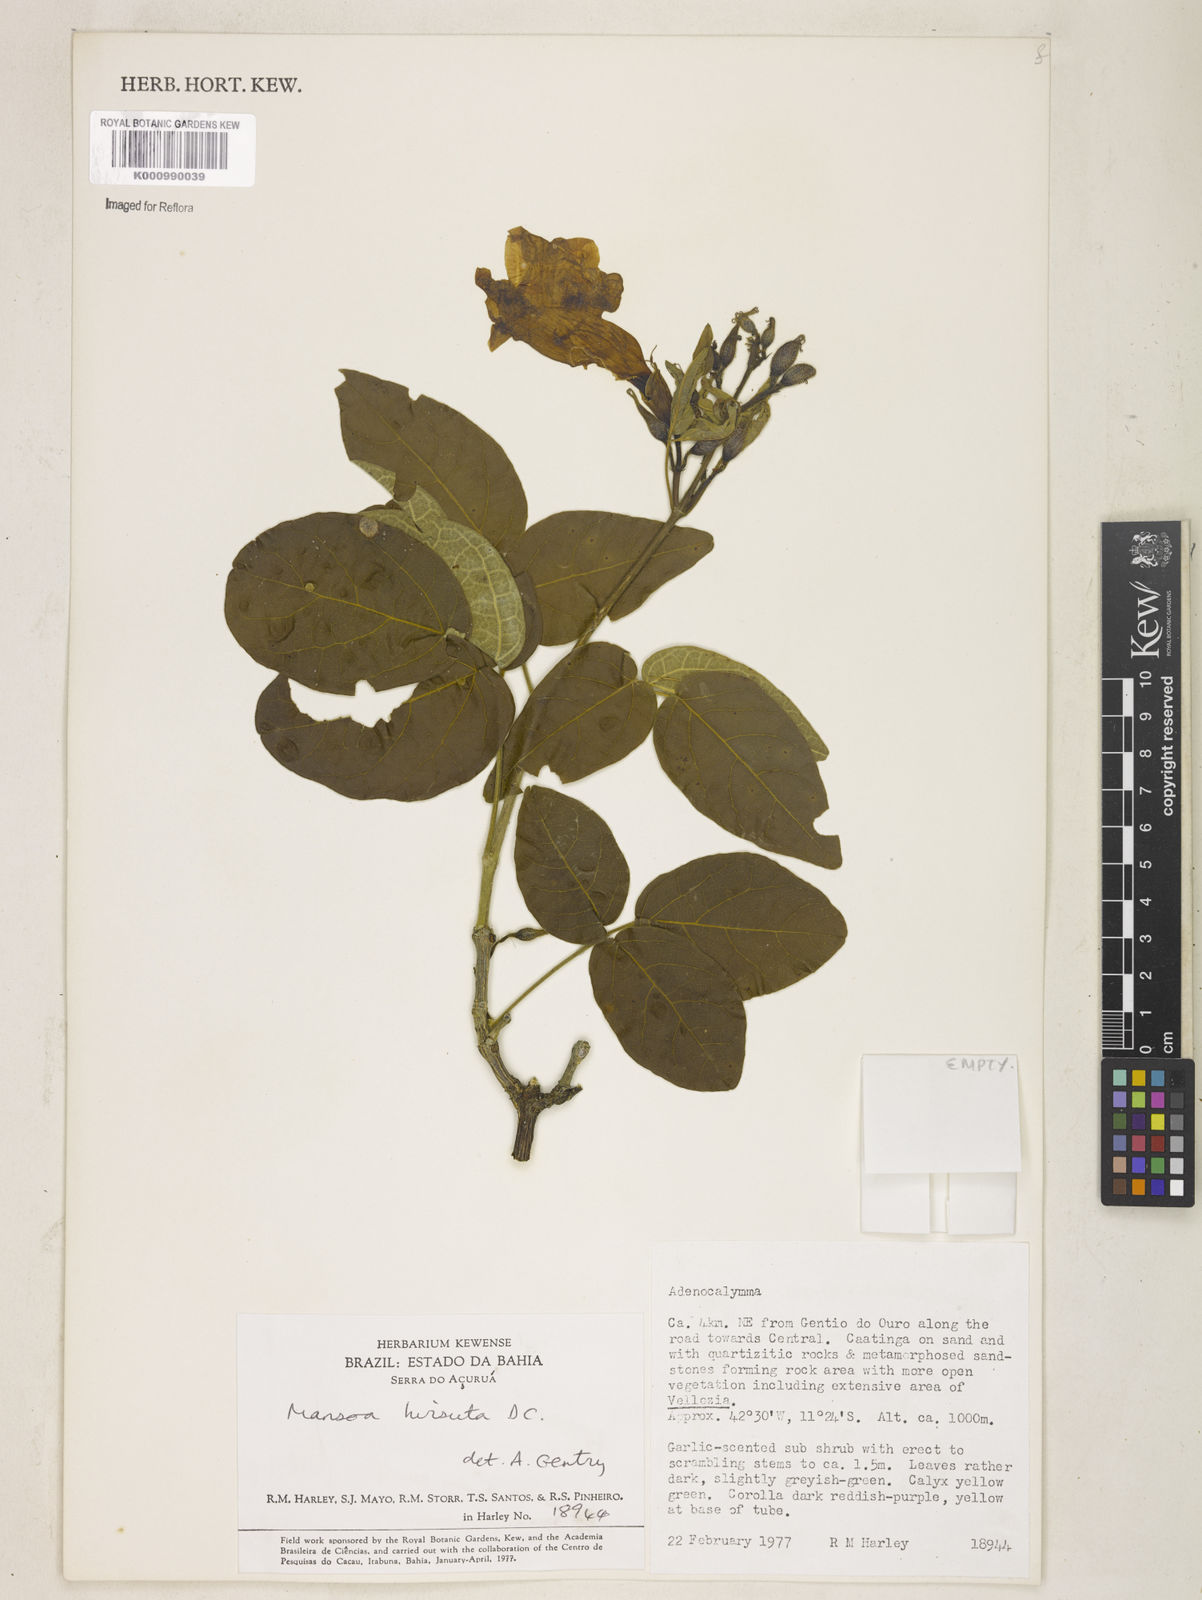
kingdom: Plantae
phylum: Tracheophyta
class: Magnoliopsida
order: Lamiales
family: Bignoniaceae
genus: Mansoa
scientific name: Mansoa hirsuta
